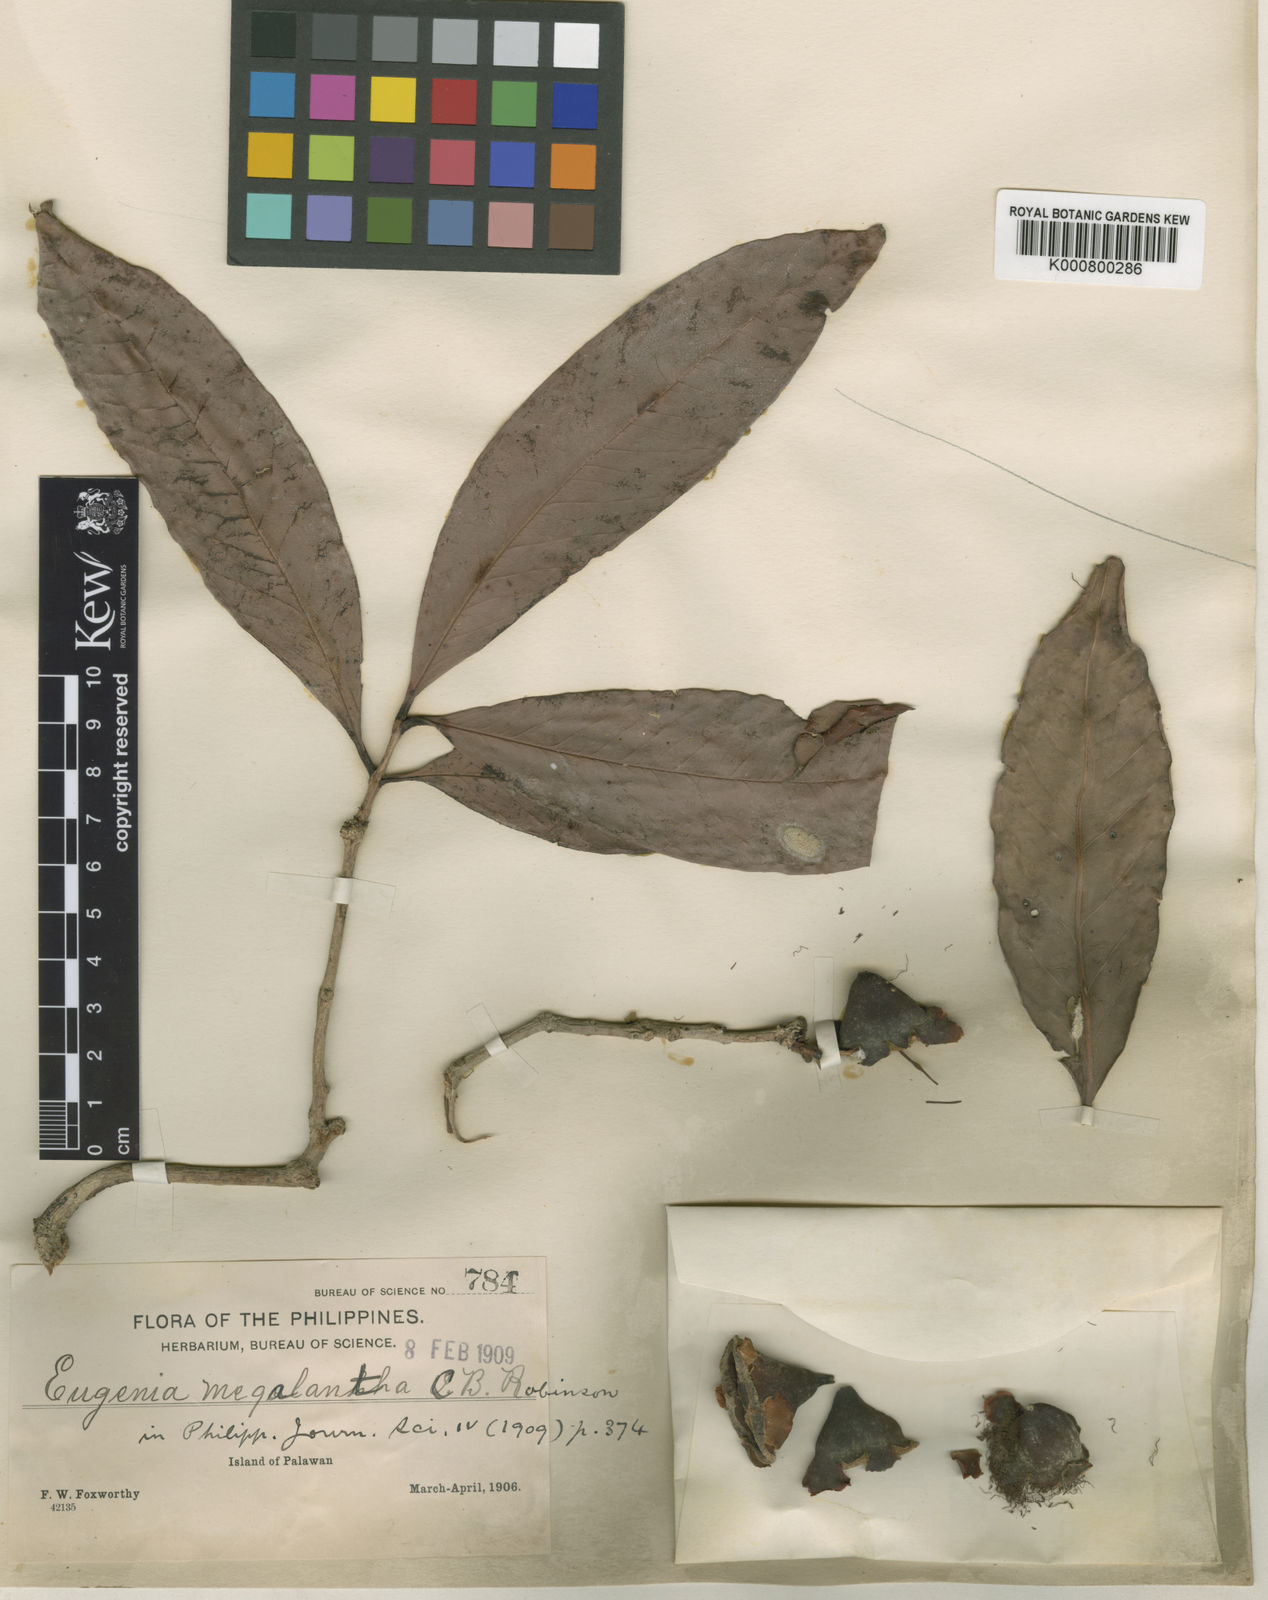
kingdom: Plantae
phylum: Tracheophyta
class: Magnoliopsida
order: Myrtales
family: Myrtaceae
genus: Syzygium
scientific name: Syzygium megalanthum
